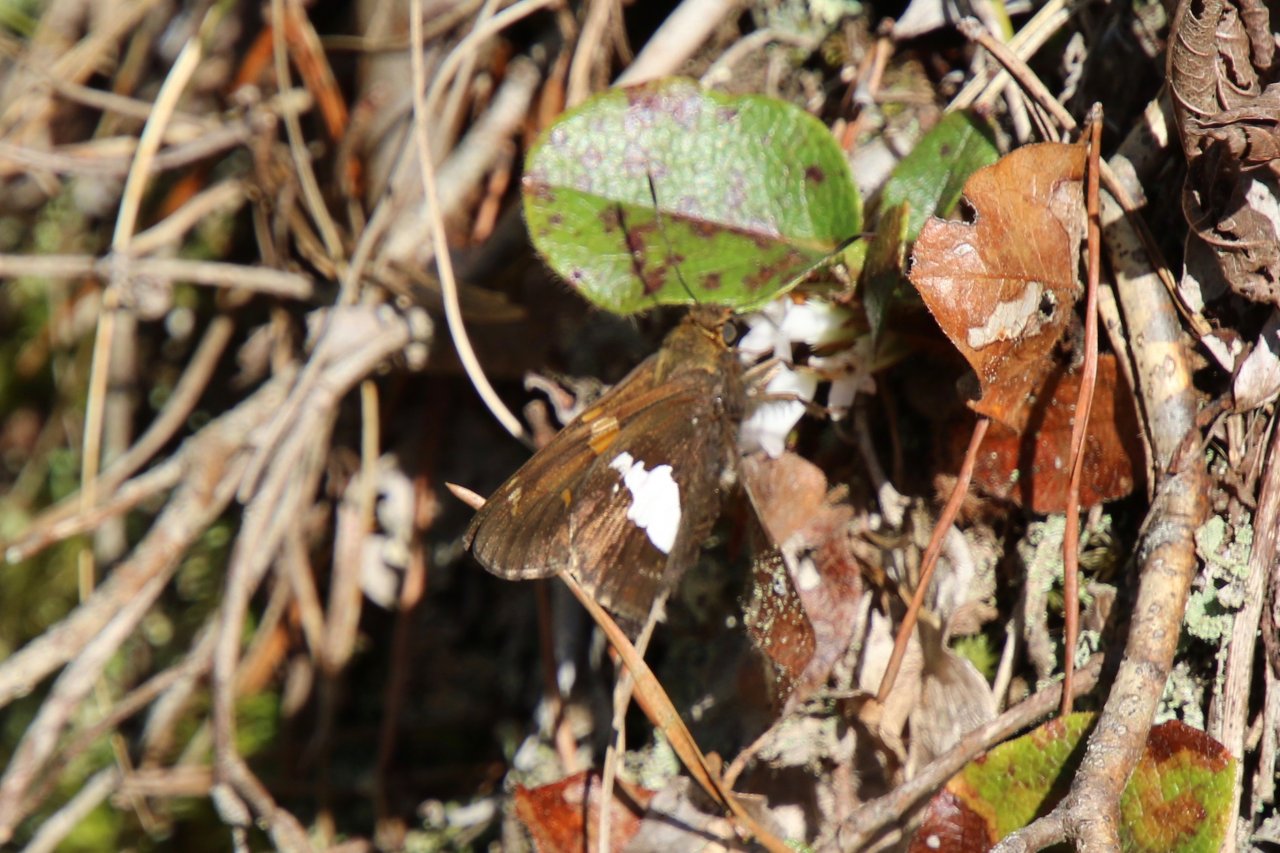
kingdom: Animalia
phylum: Arthropoda
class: Insecta
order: Lepidoptera
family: Hesperiidae
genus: Epargyreus
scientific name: Epargyreus clarus
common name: Silver-spotted Skipper
